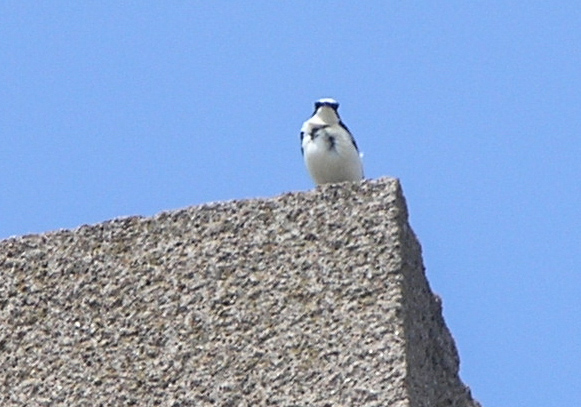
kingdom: Animalia
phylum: Chordata
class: Aves
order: Passeriformes
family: Muscicapidae
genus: Oenanthe
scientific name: Oenanthe hispanica
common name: Black-eared wheatear
